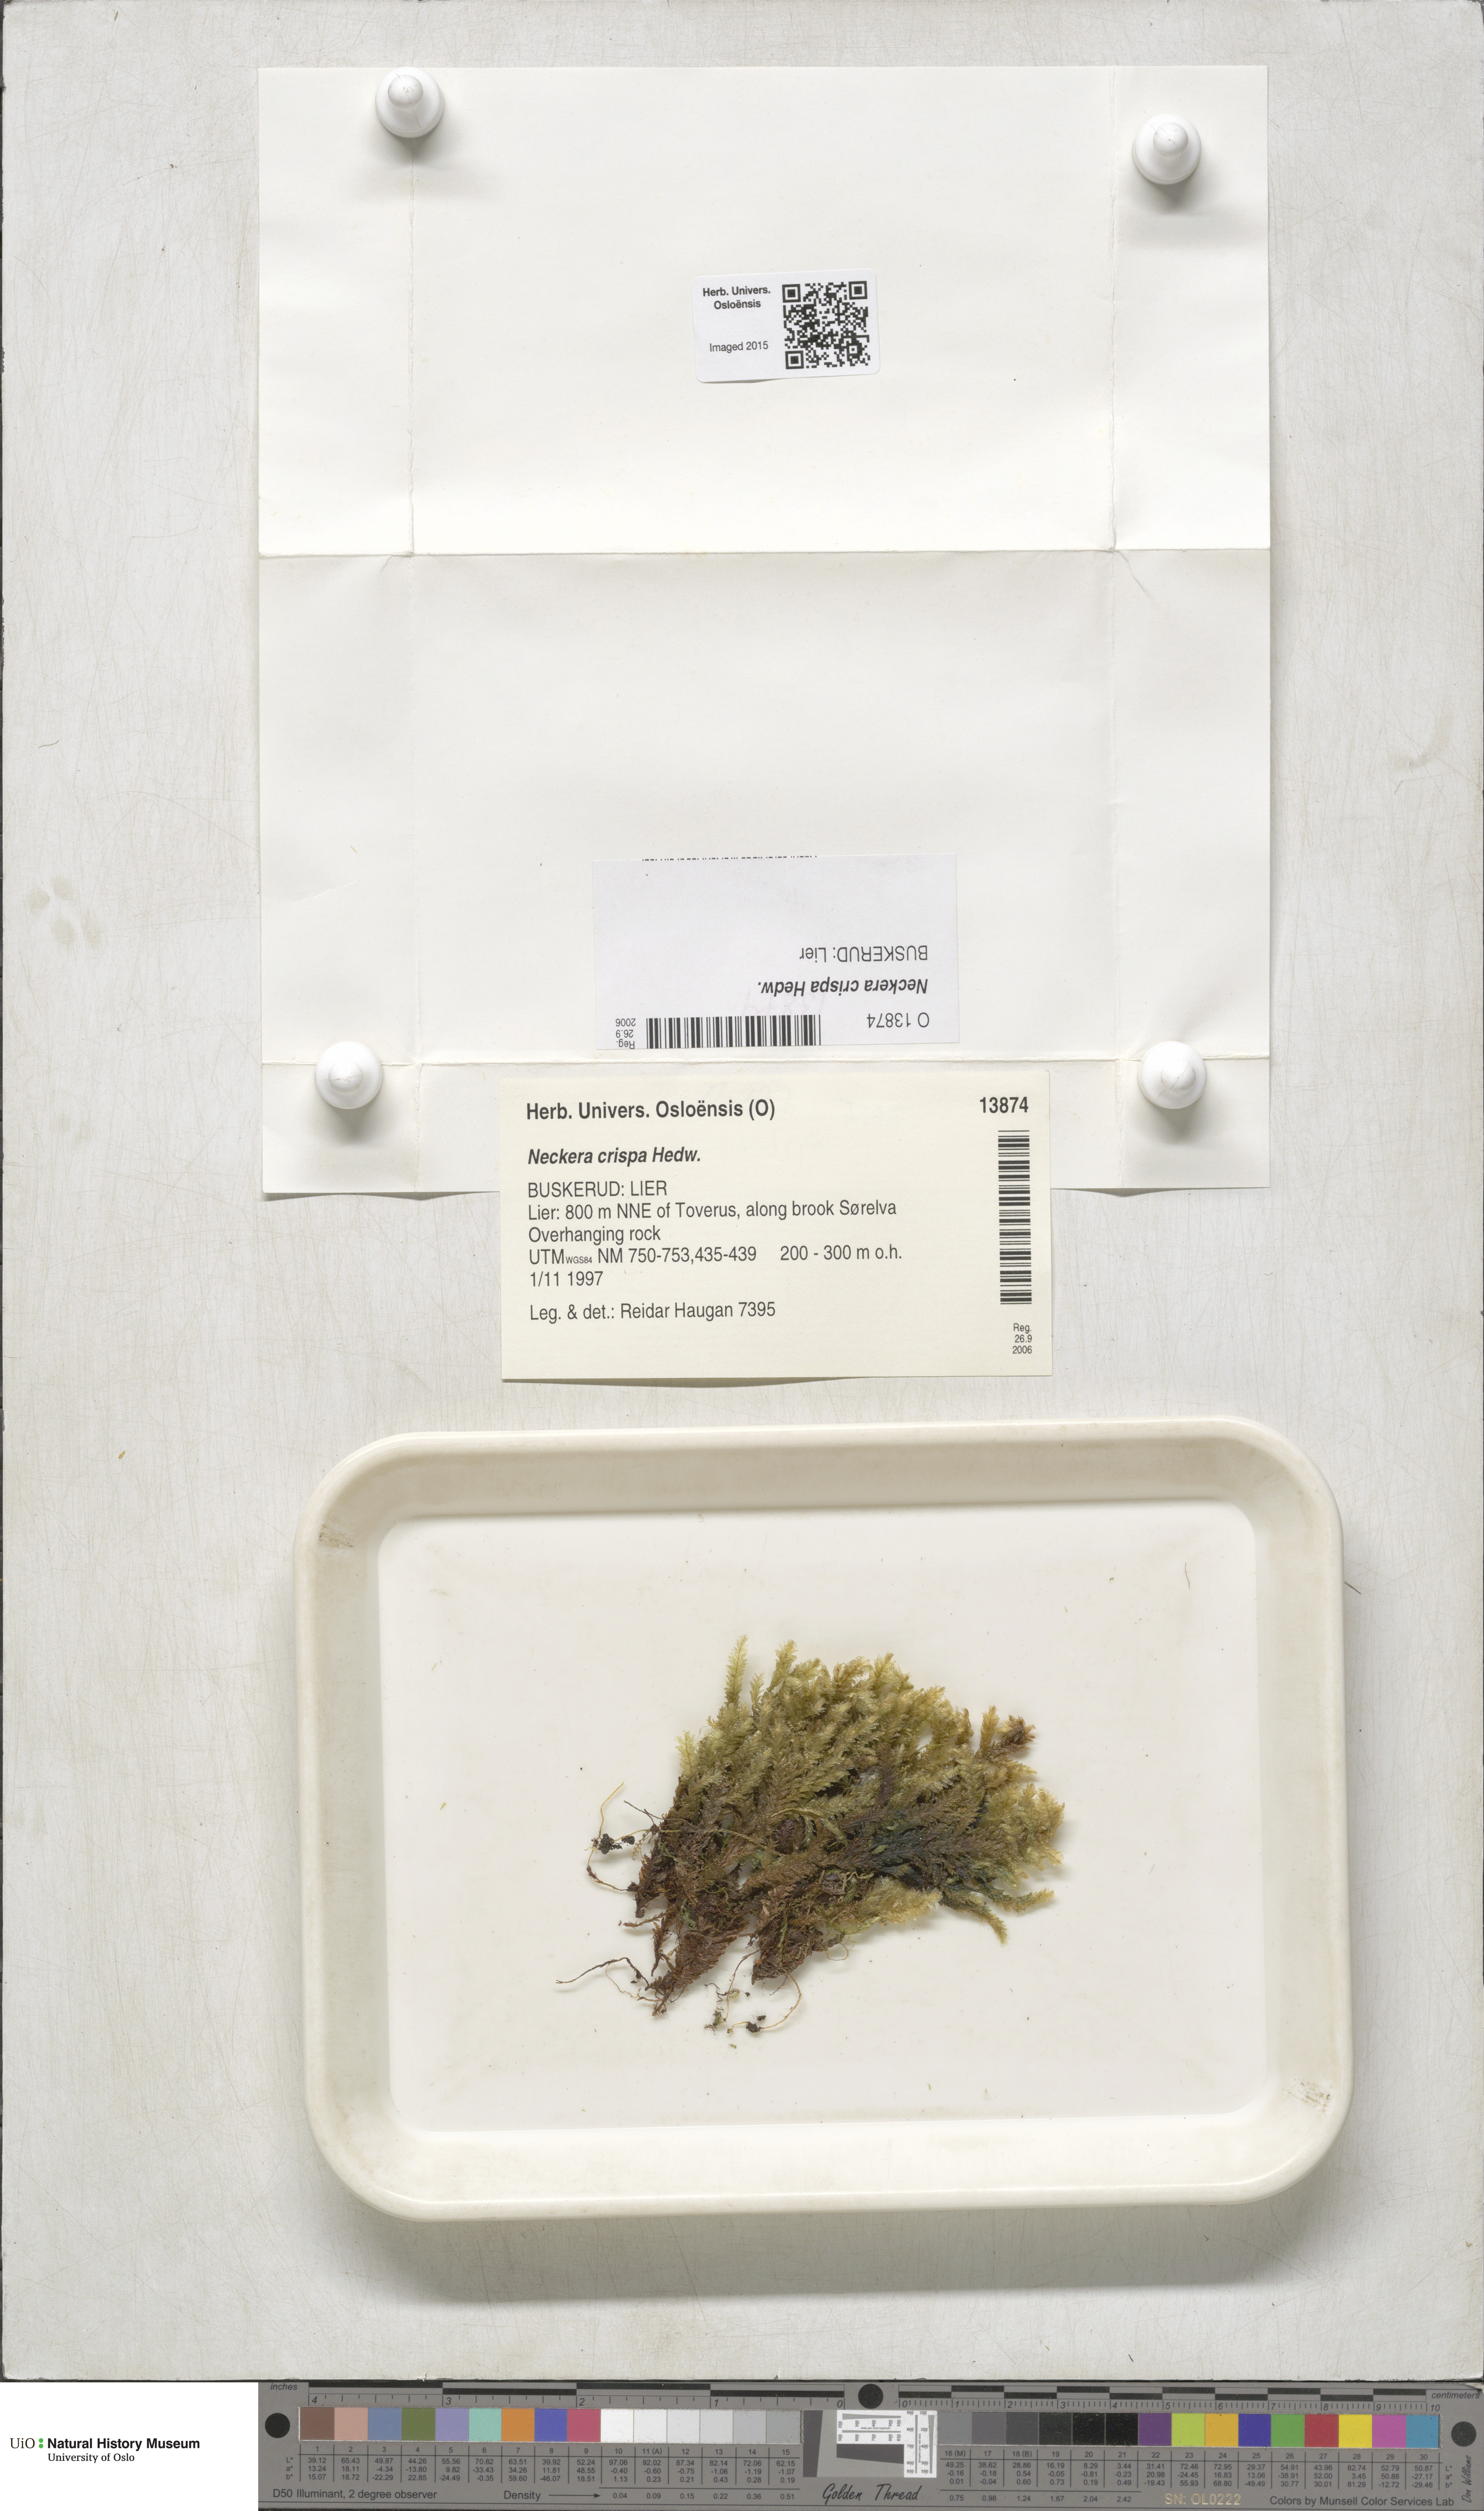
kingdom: Plantae
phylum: Bryophyta
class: Bryopsida
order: Hypnales
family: Neckeraceae
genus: Exsertotheca
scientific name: Exsertotheca crispa
